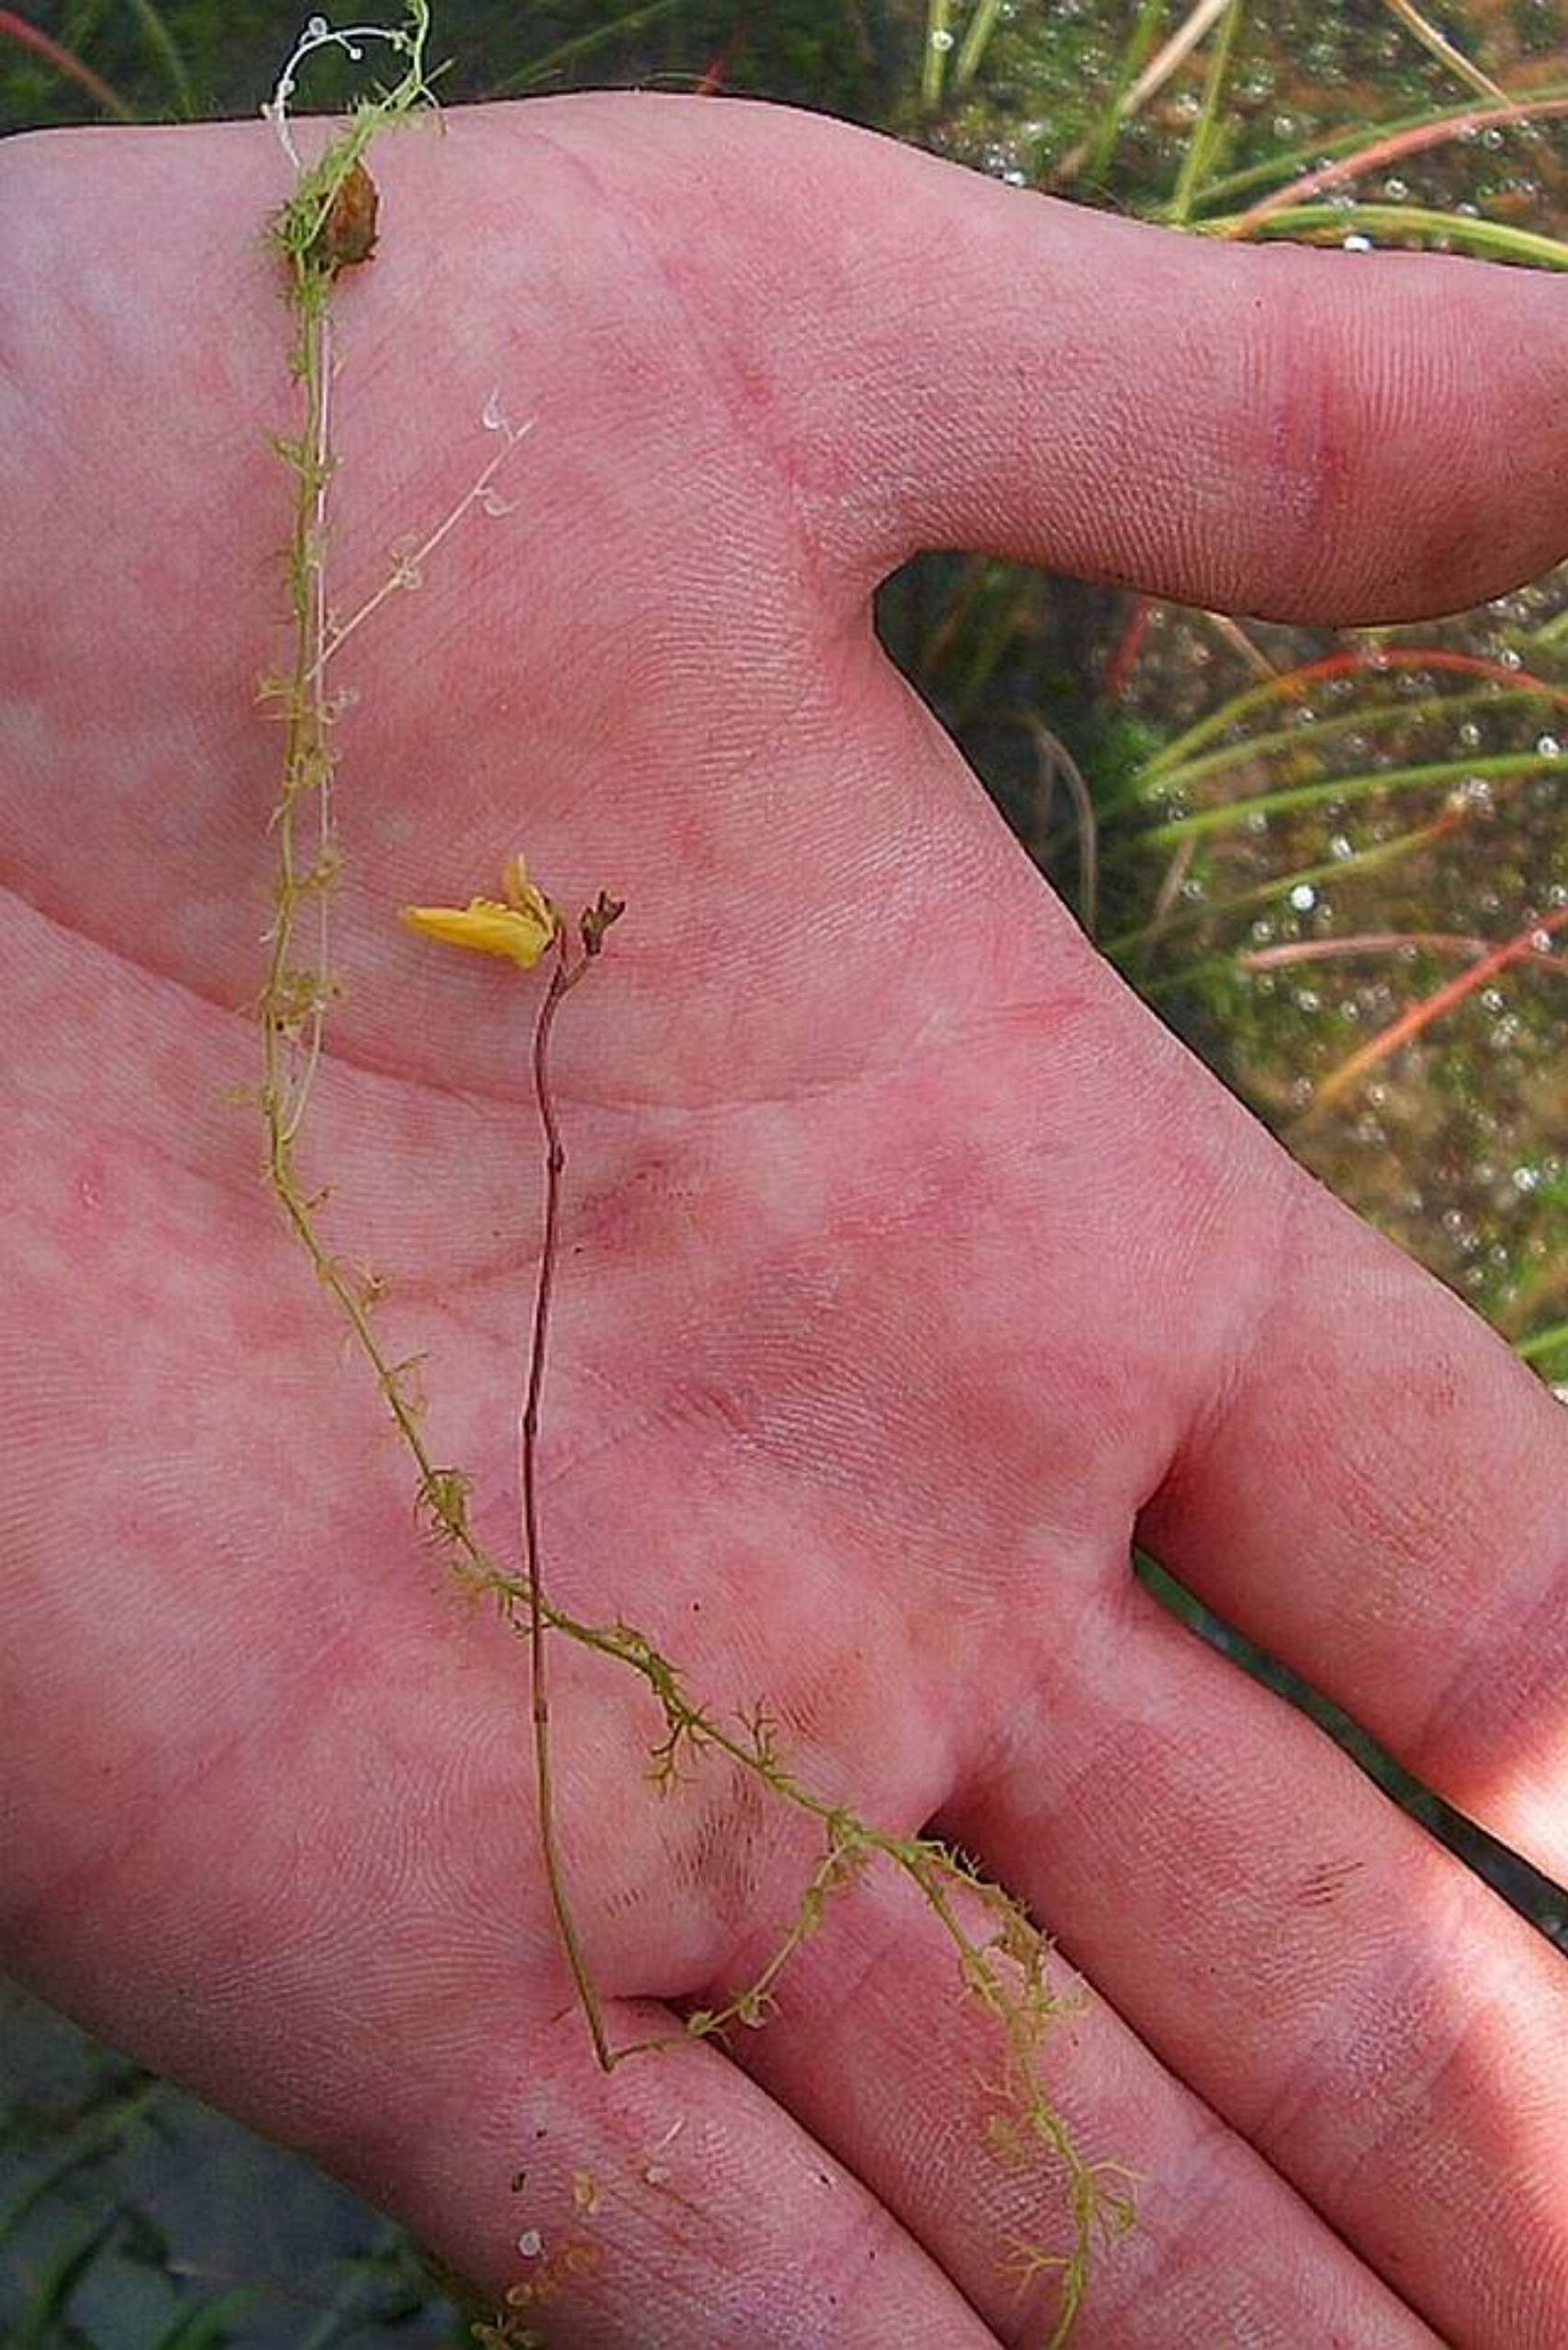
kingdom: Plantae
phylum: Tracheophyta
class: Magnoliopsida
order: Lamiales
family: Lentibulariaceae
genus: Utricularia
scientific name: Utricularia minor
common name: Liden blærerod
